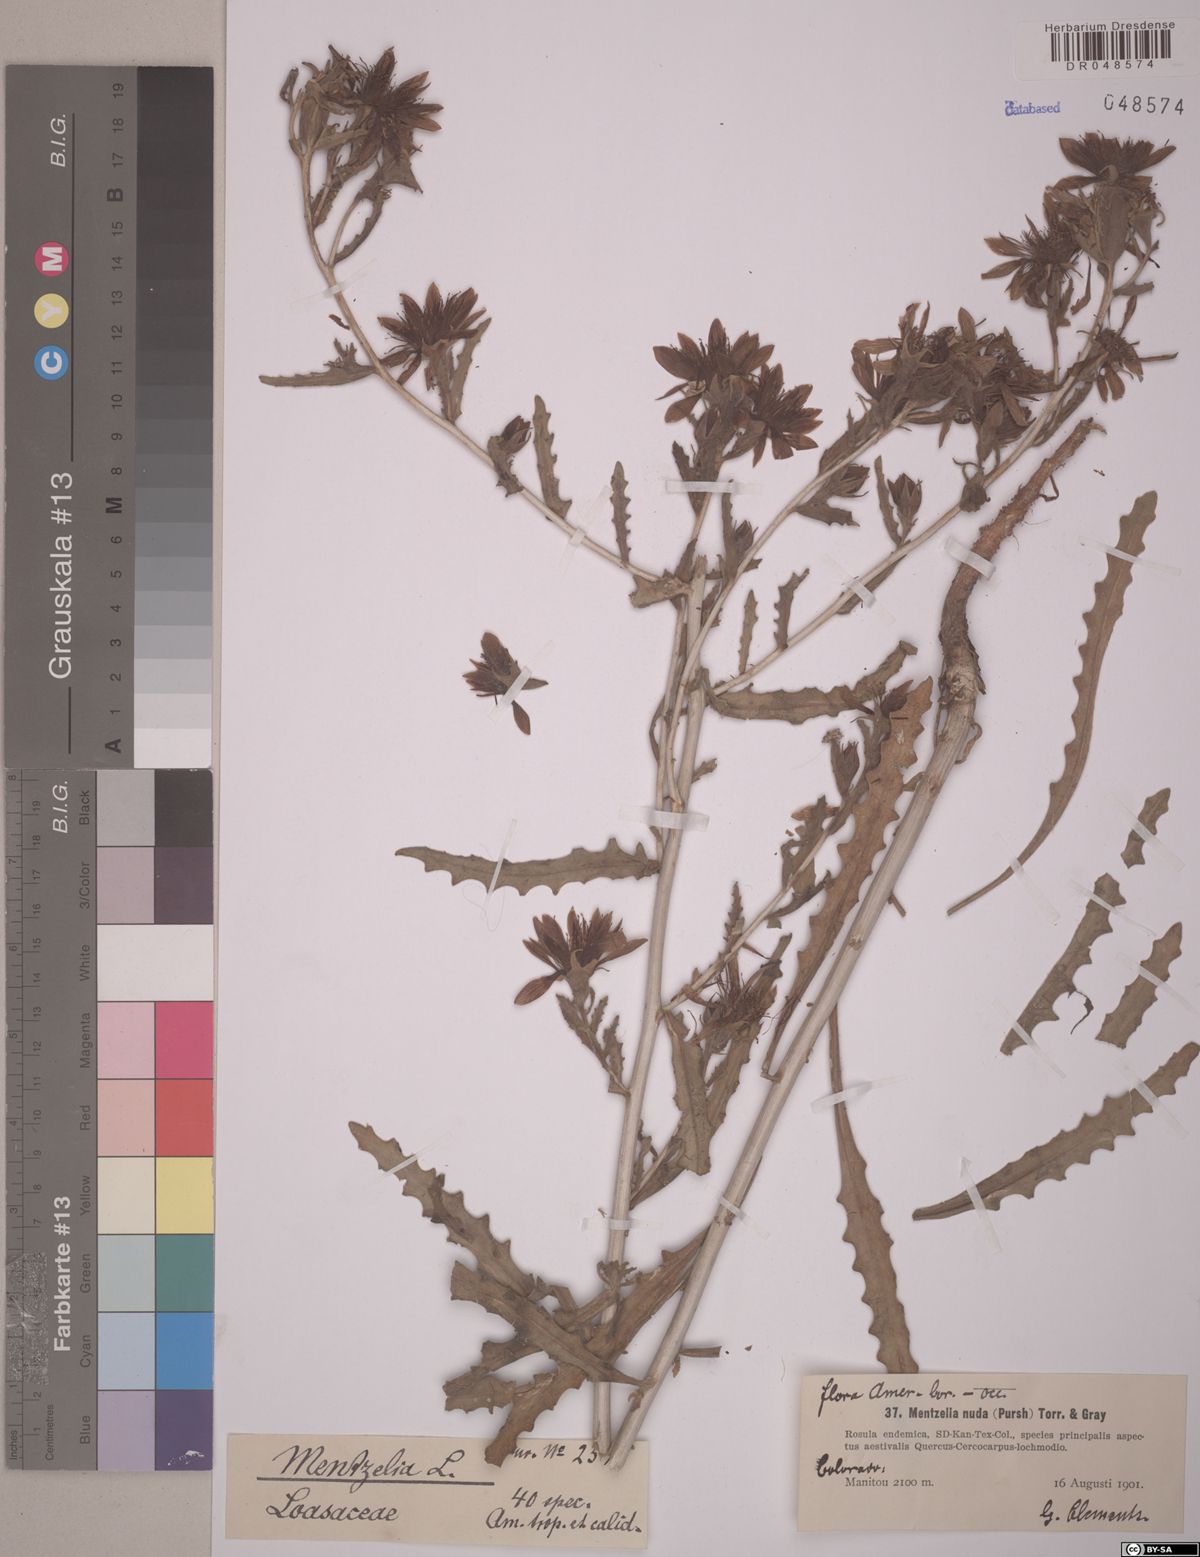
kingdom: Plantae
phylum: Tracheophyta
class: Magnoliopsida
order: Cornales
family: Loasaceae
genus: Mentzelia
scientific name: Mentzelia nuda
